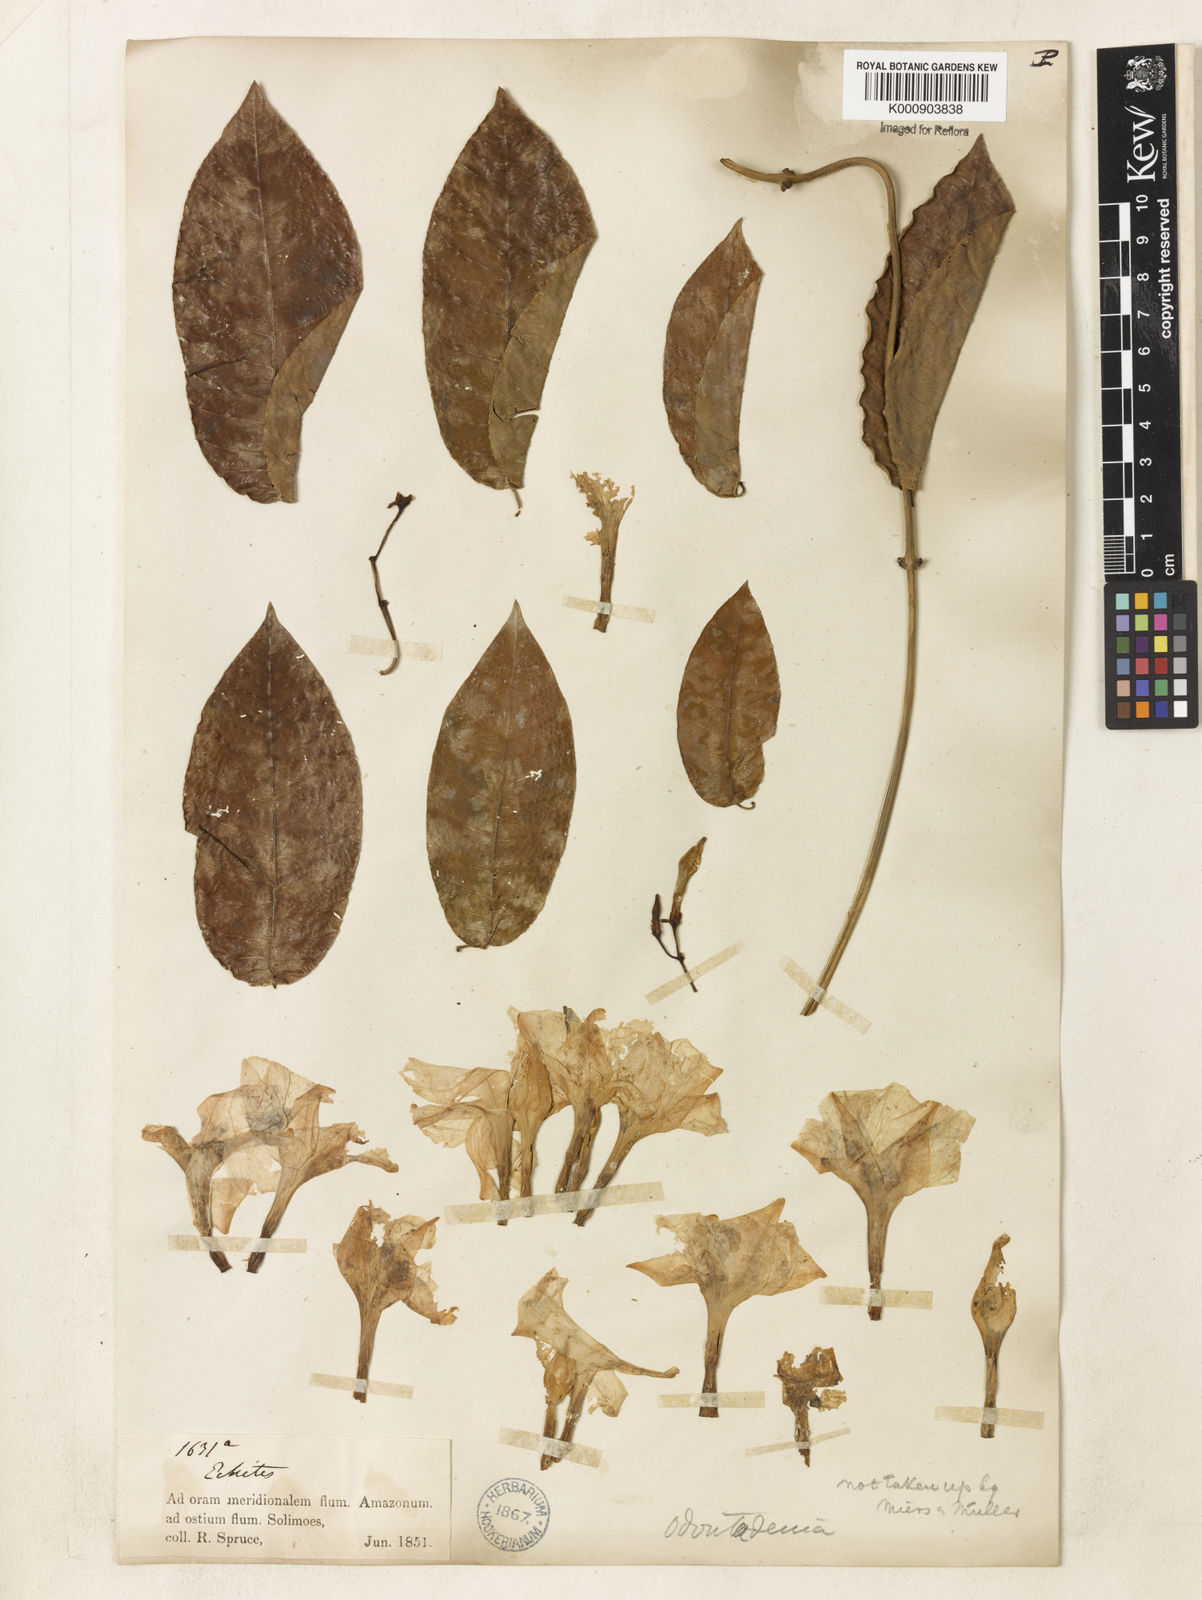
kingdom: Plantae
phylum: Tracheophyta
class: Magnoliopsida
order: Gentianales
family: Apocynaceae
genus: Odontadenia
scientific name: Odontadenia
